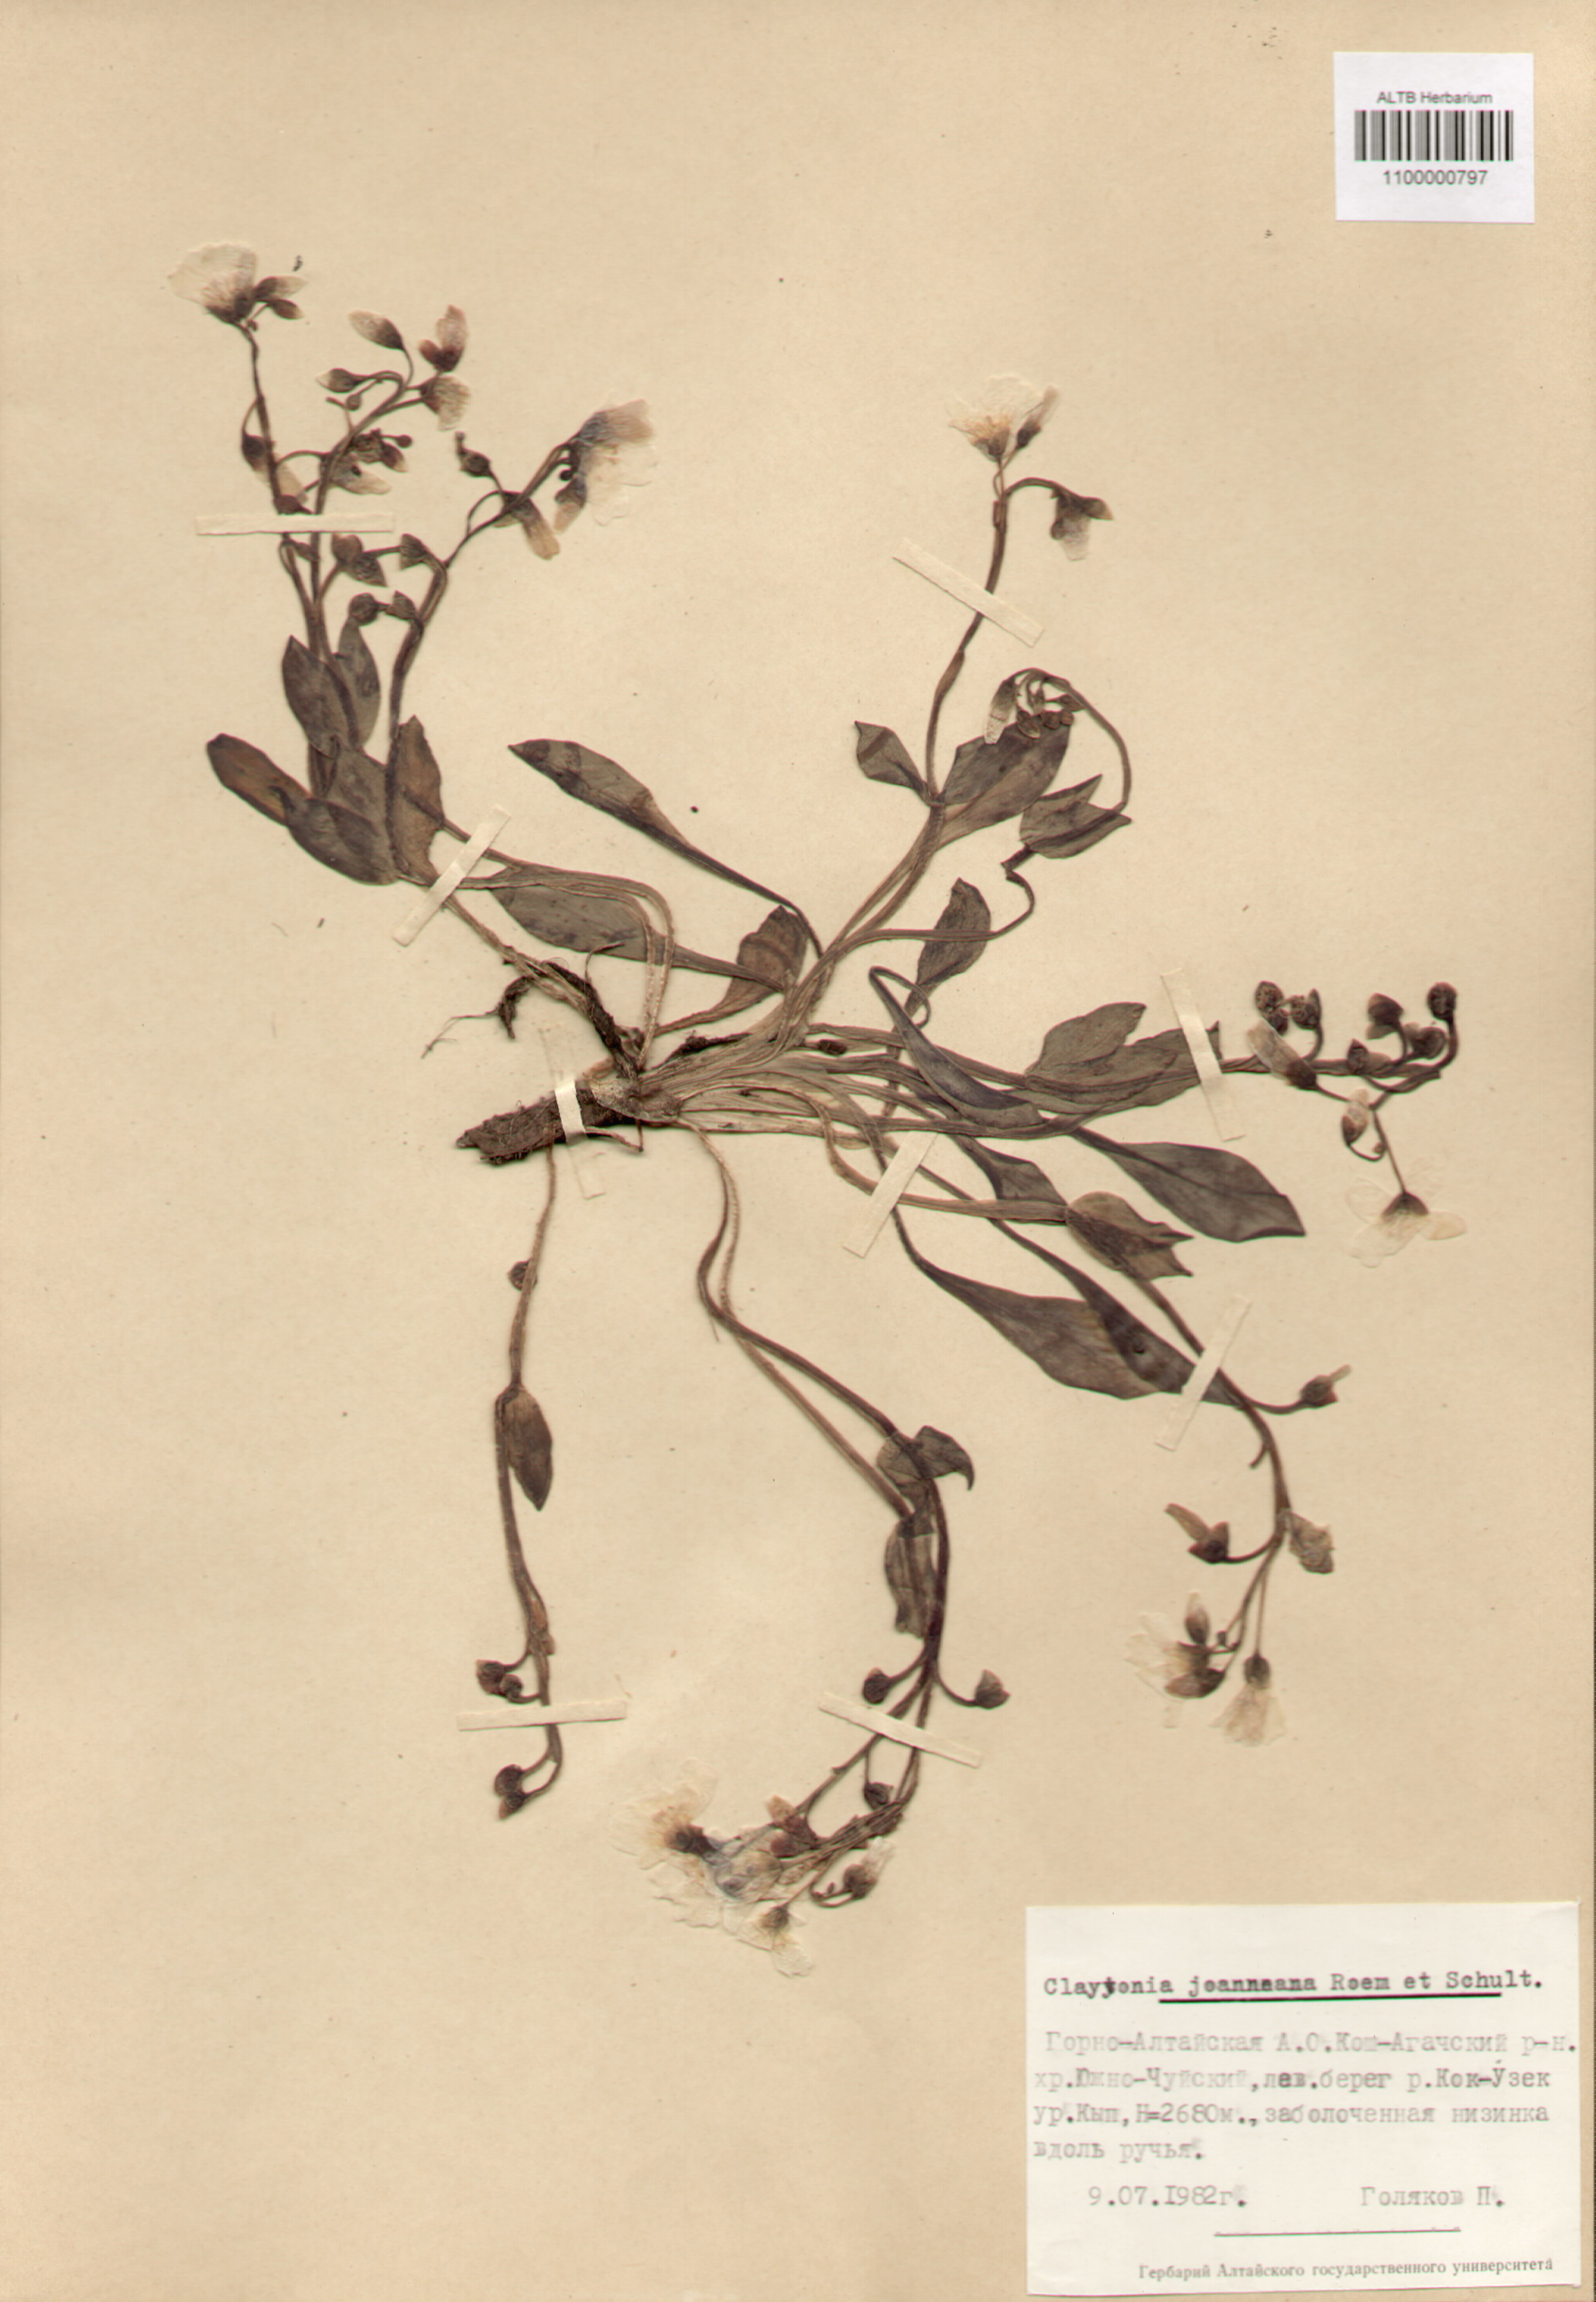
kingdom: Plantae
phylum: Tracheophyta
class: Magnoliopsida
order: Caryophyllales
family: Montiaceae
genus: Claytonia
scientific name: Claytonia joanneana
